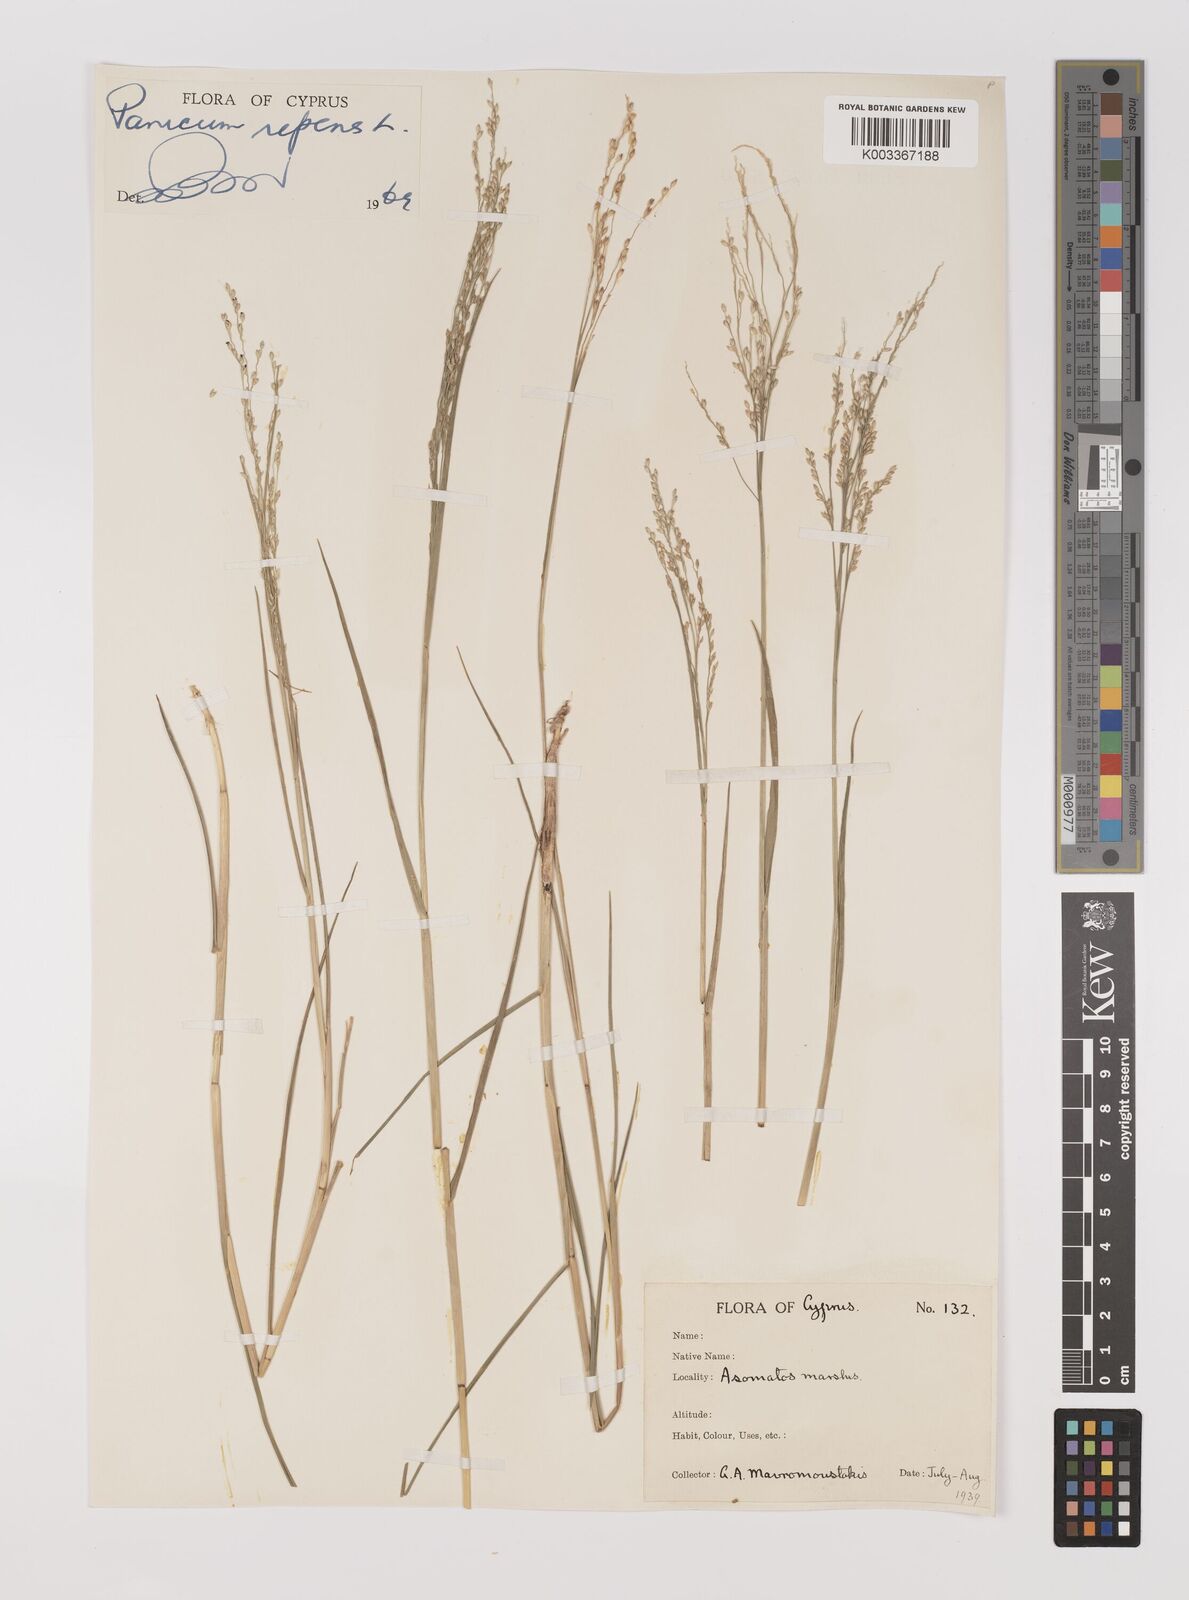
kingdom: Plantae
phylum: Tracheophyta
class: Liliopsida
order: Poales
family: Poaceae
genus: Panicum
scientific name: Panicum repens
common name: Torpedo grass
